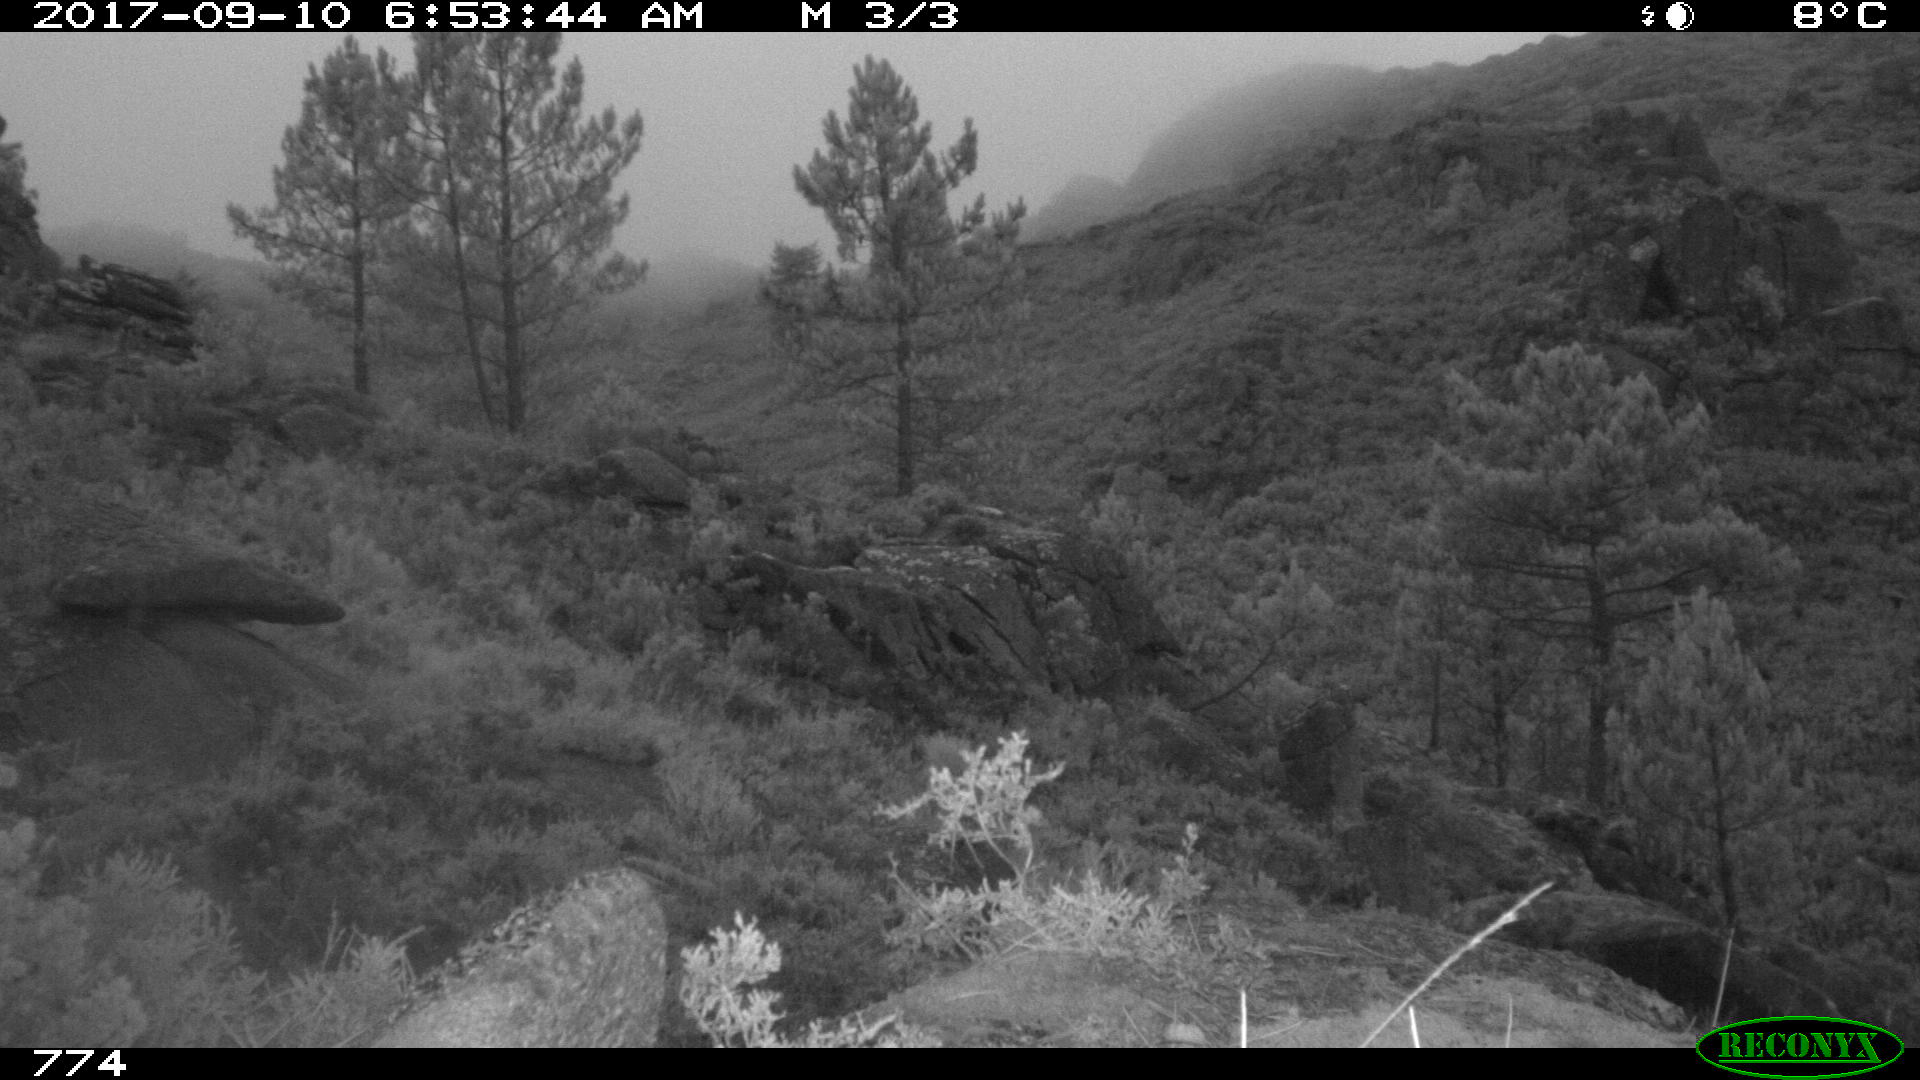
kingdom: Animalia
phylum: Chordata
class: Mammalia
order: Artiodactyla
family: Cervidae
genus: Capreolus
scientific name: Capreolus capreolus
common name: Western roe deer
